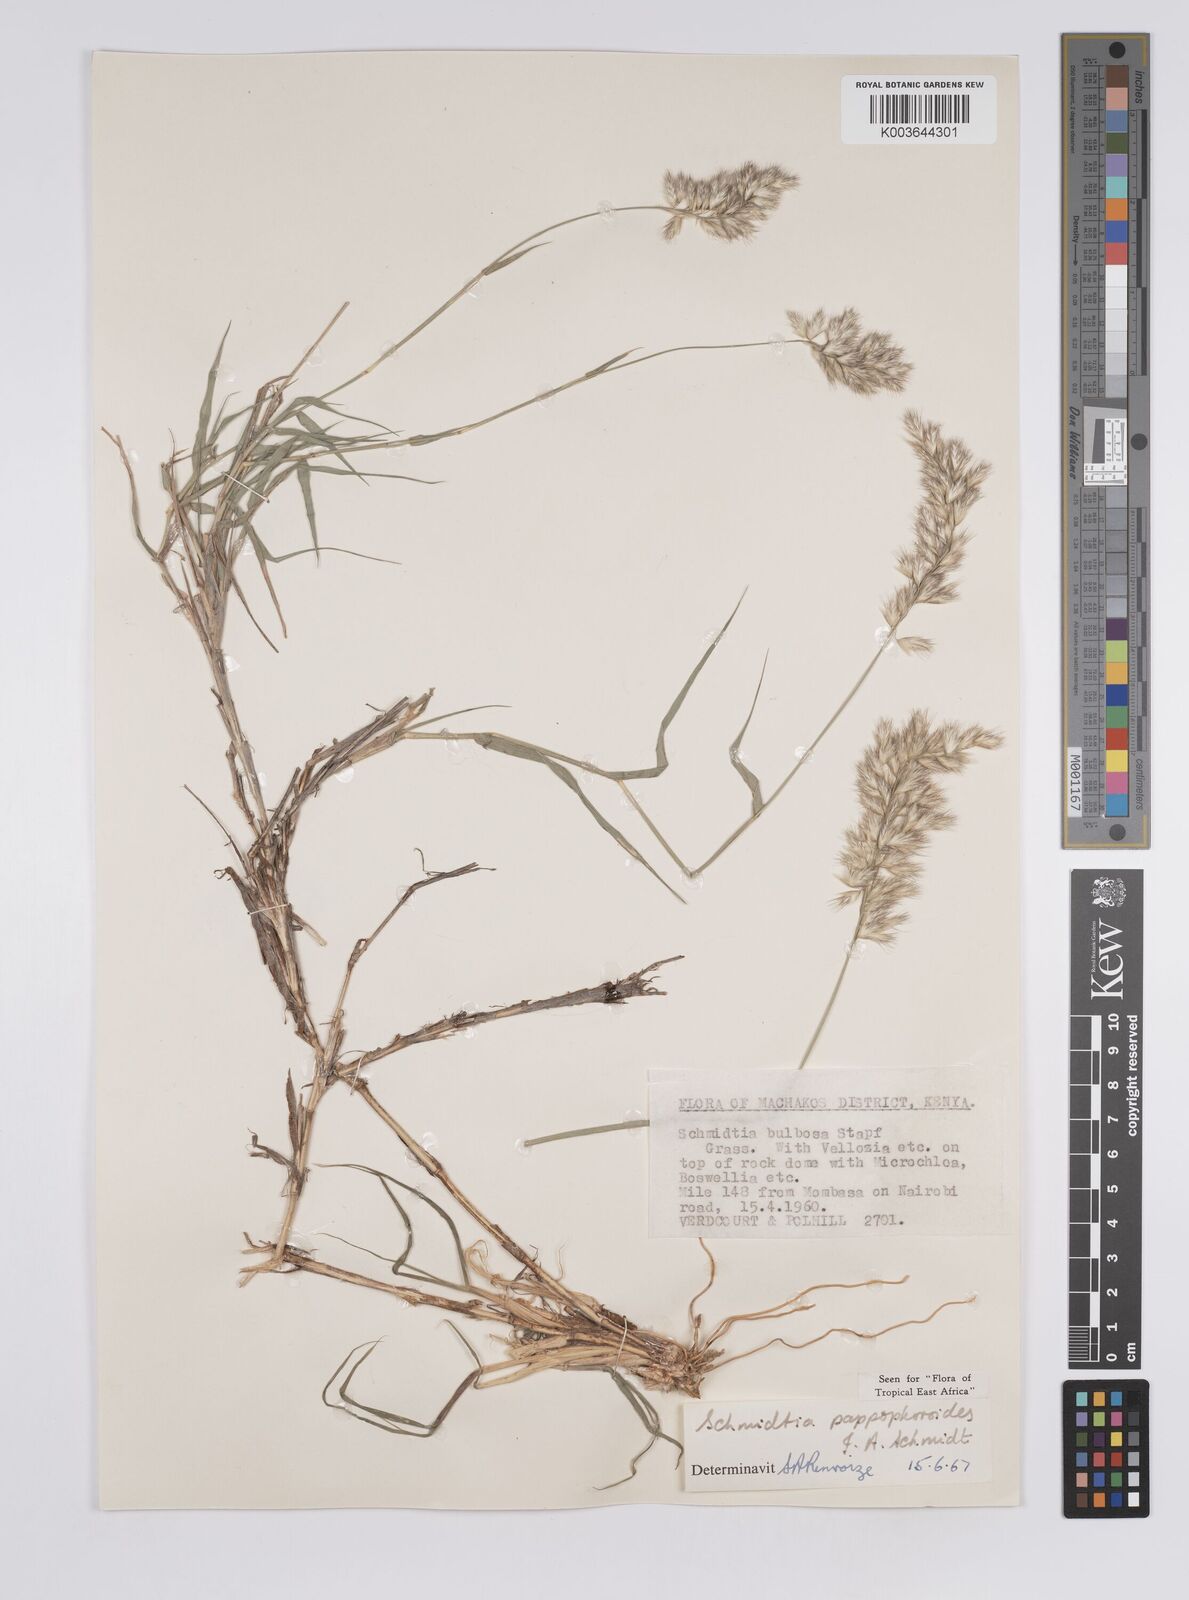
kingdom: Plantae
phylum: Tracheophyta
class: Liliopsida
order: Poales
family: Poaceae
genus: Schmidtia
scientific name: Schmidtia pappophoroides
